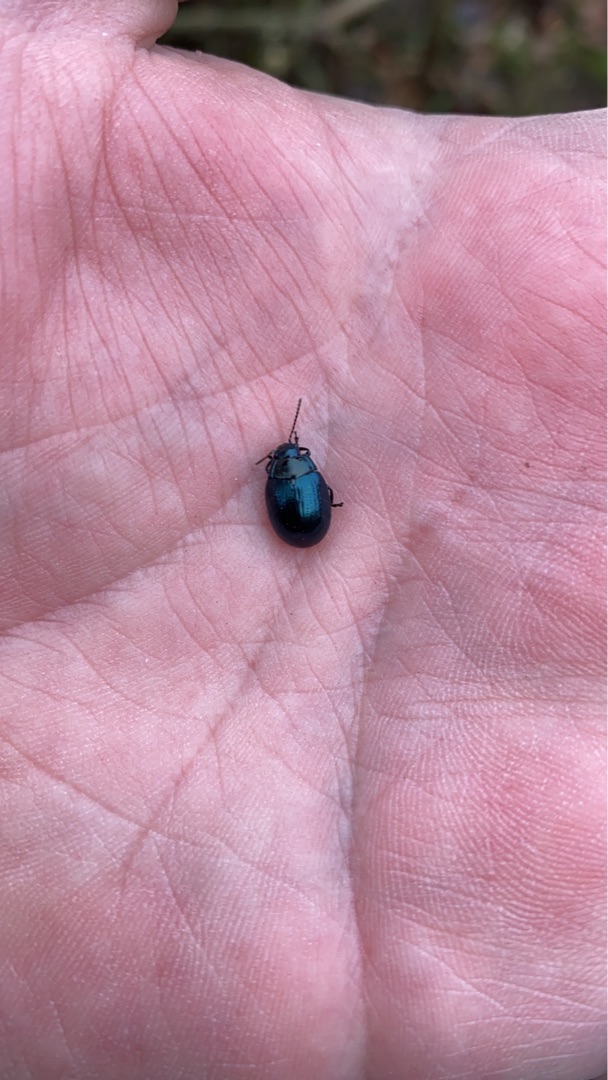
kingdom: Animalia
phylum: Arthropoda
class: Insecta
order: Coleoptera
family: Chrysomelidae
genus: Chrysolina
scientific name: Chrysolina oricalcia
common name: Rækkepunkteret guldbille
